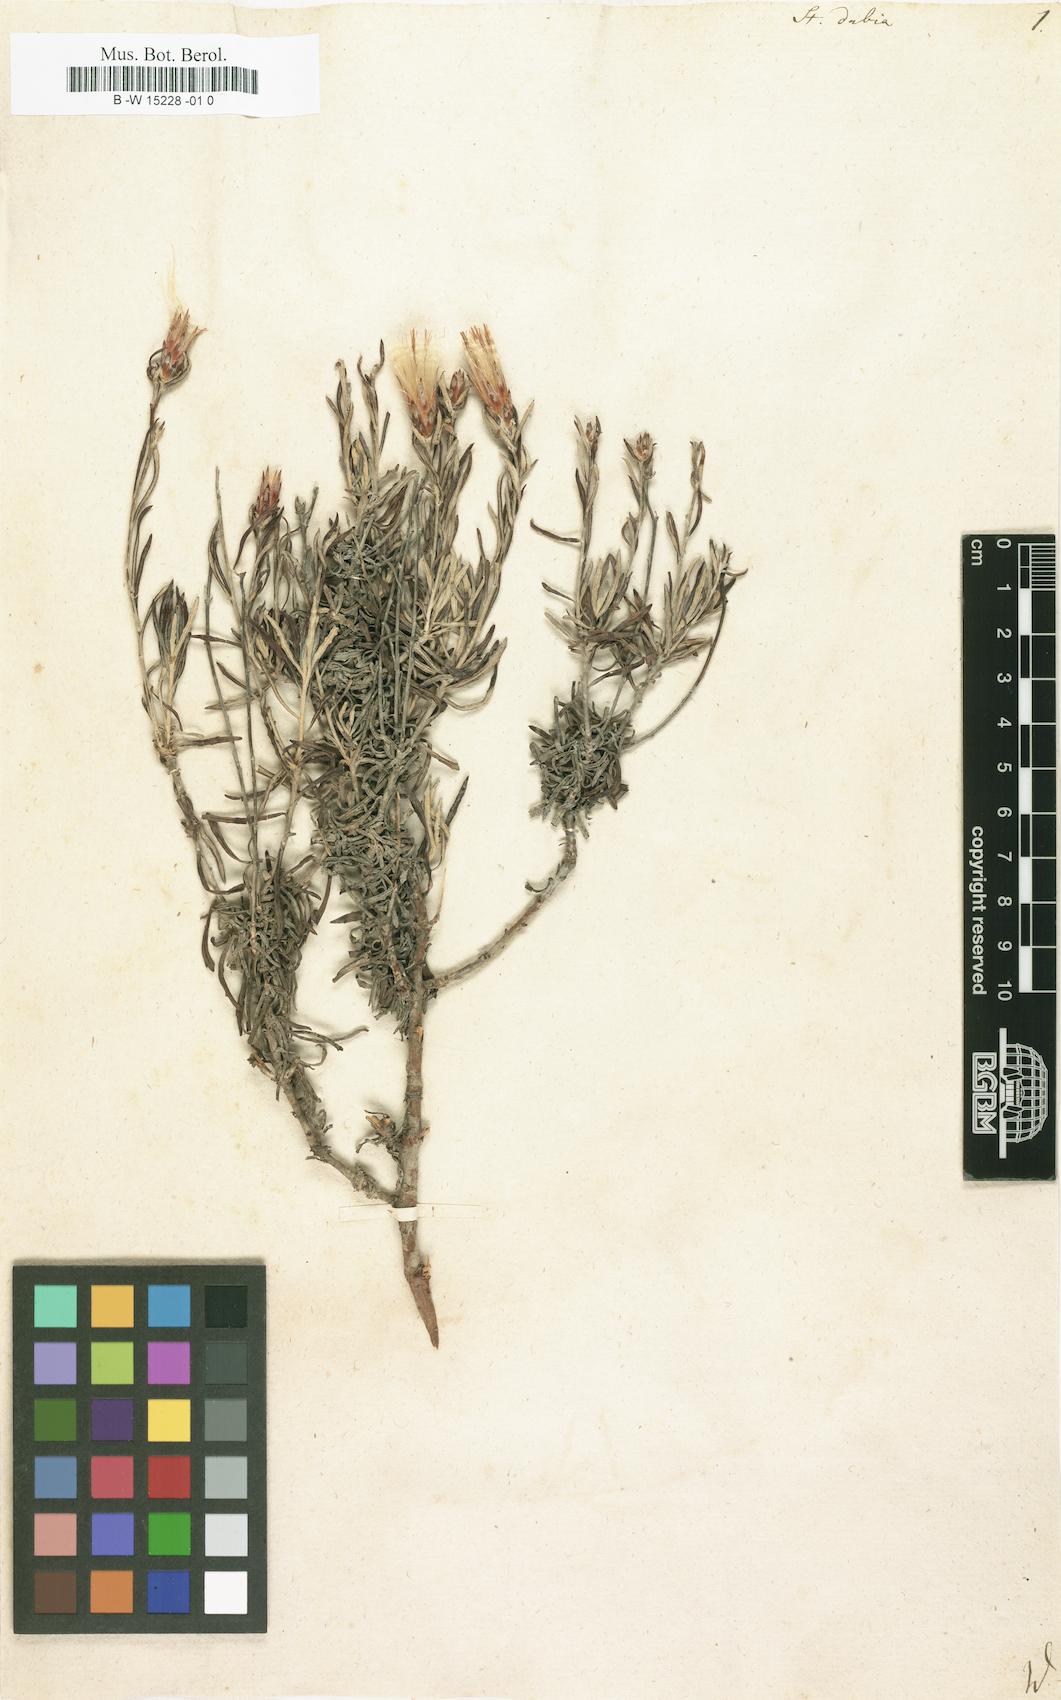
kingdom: Plantae
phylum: Tracheophyta
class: Magnoliopsida
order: Asterales
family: Asteraceae
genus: Staehelina
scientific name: Staehelina dubia
